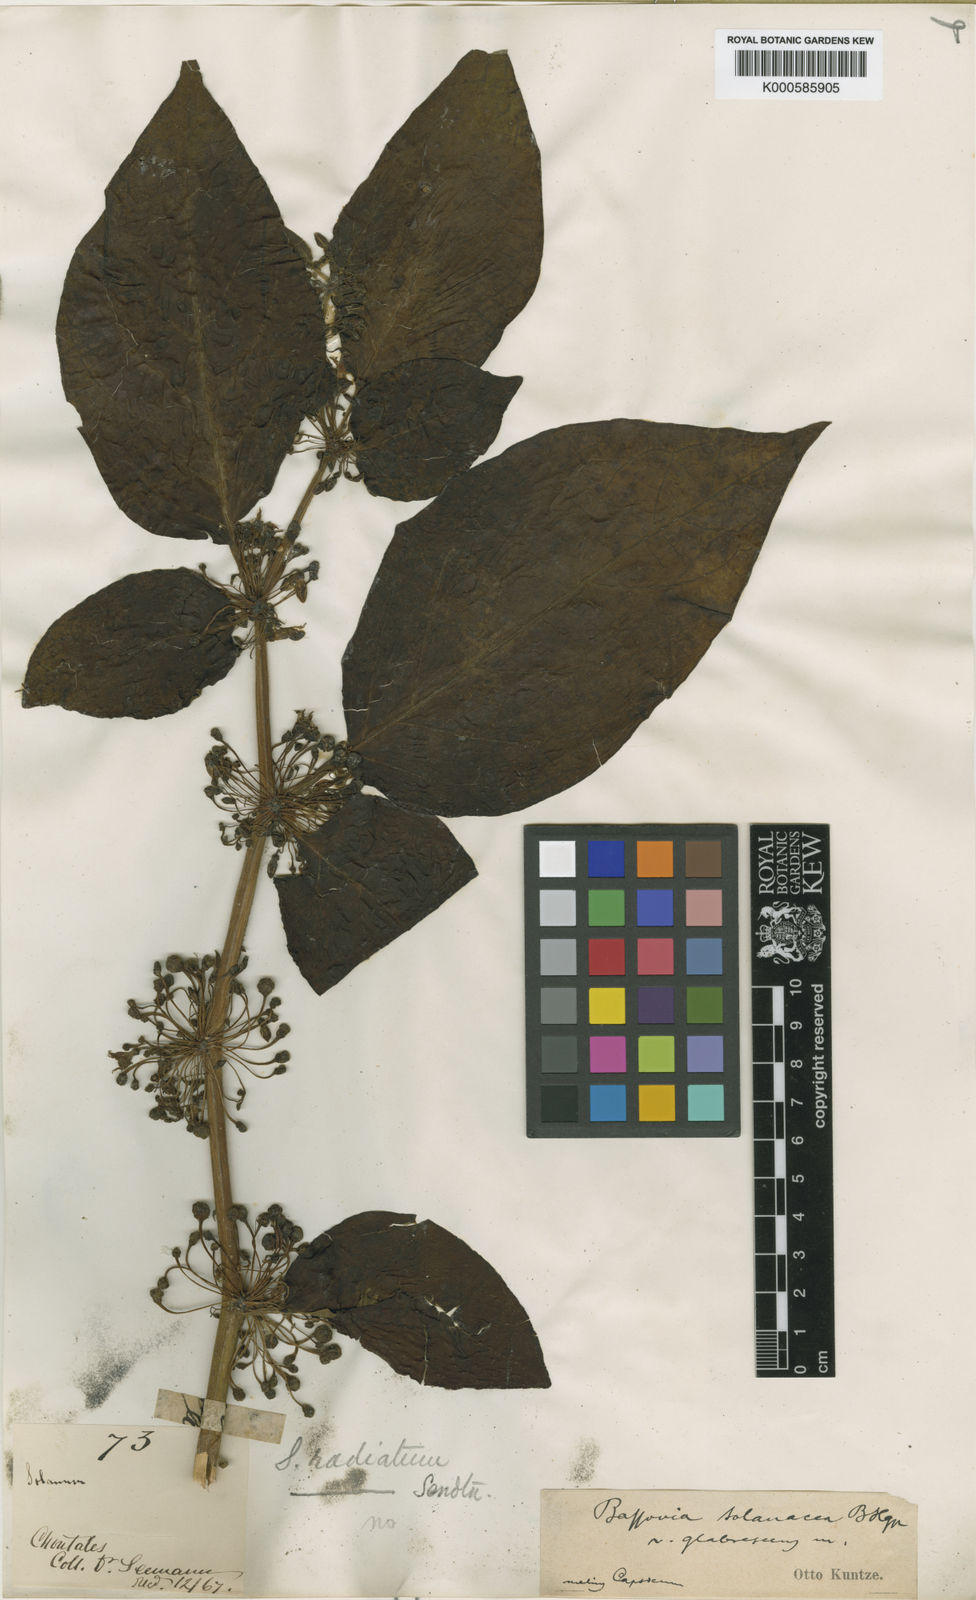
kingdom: Plantae
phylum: Tracheophyta
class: Magnoliopsida
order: Solanales
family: Solanaceae
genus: Witheringia
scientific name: Witheringia
